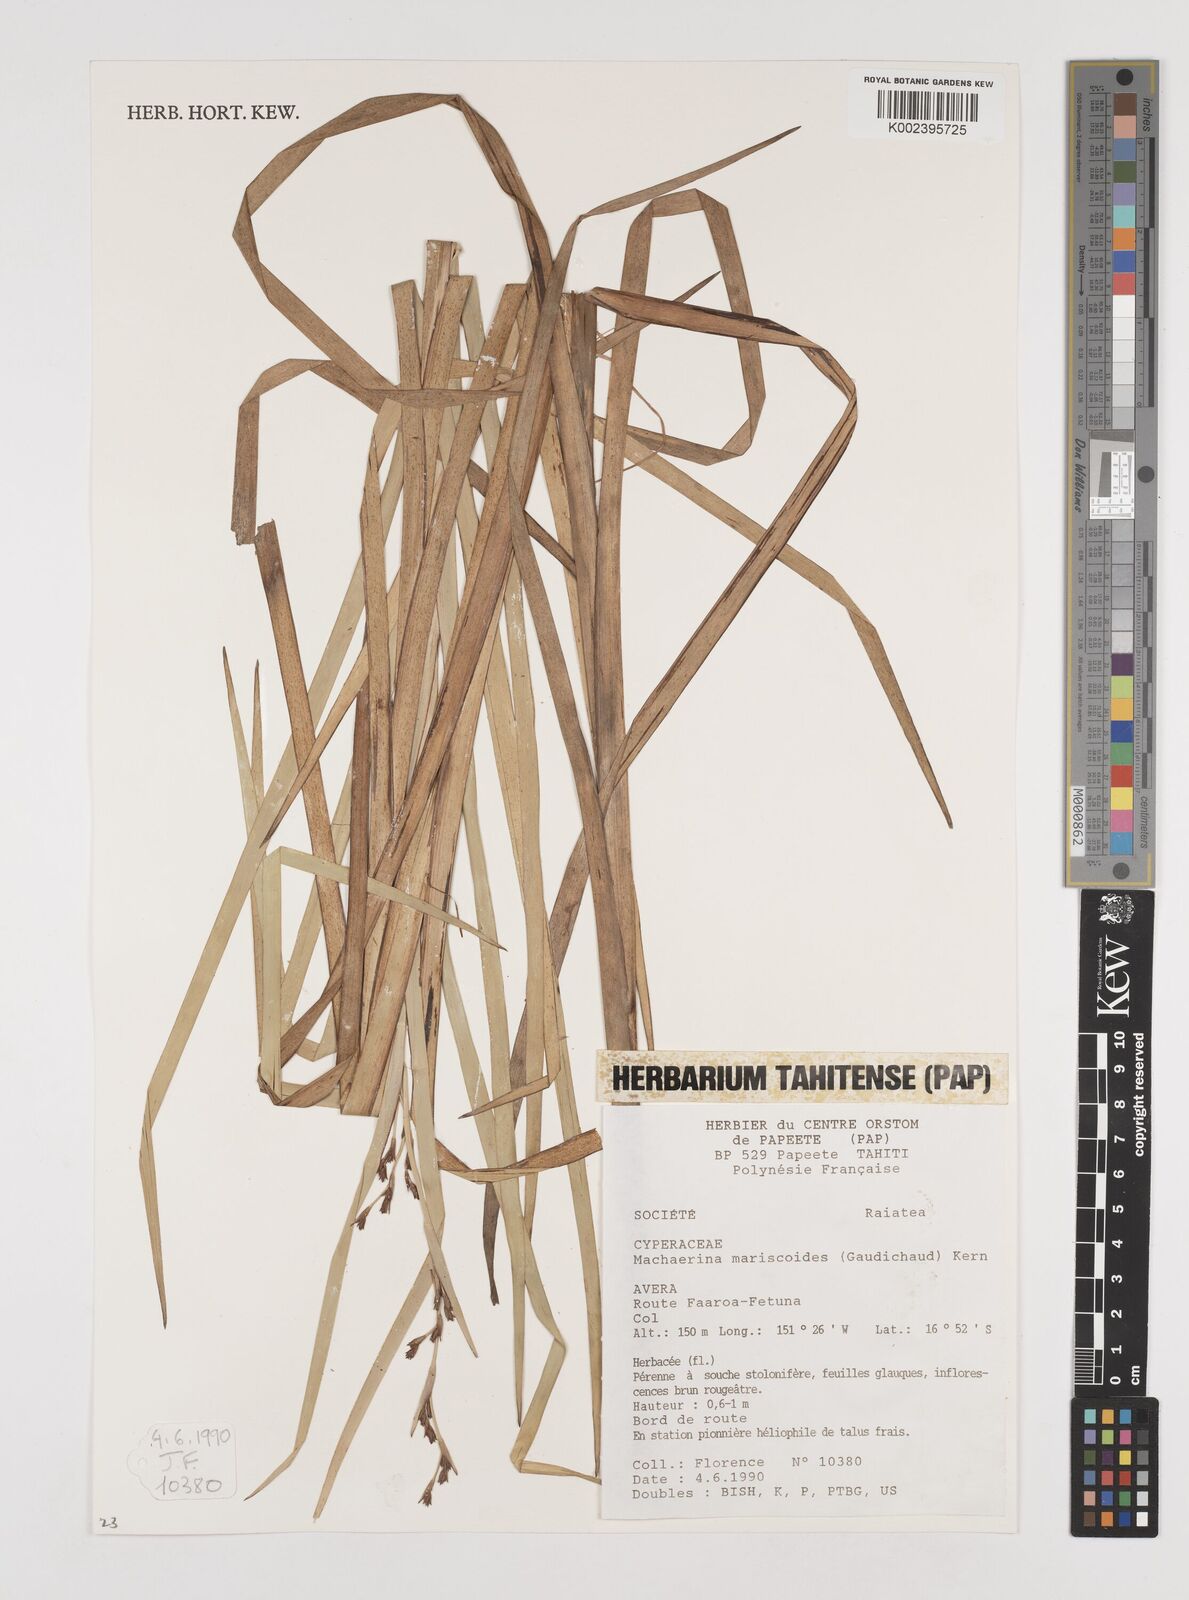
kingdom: Plantae
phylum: Tracheophyta
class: Liliopsida
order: Poales
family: Cyperaceae
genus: Machaerina
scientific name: Machaerina mariscoides
